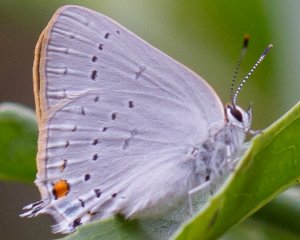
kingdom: Animalia
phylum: Arthropoda
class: Insecta
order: Lepidoptera
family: Lycaenidae
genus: Strymon
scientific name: Strymon sylvinus
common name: Sylvan Hairstreak
